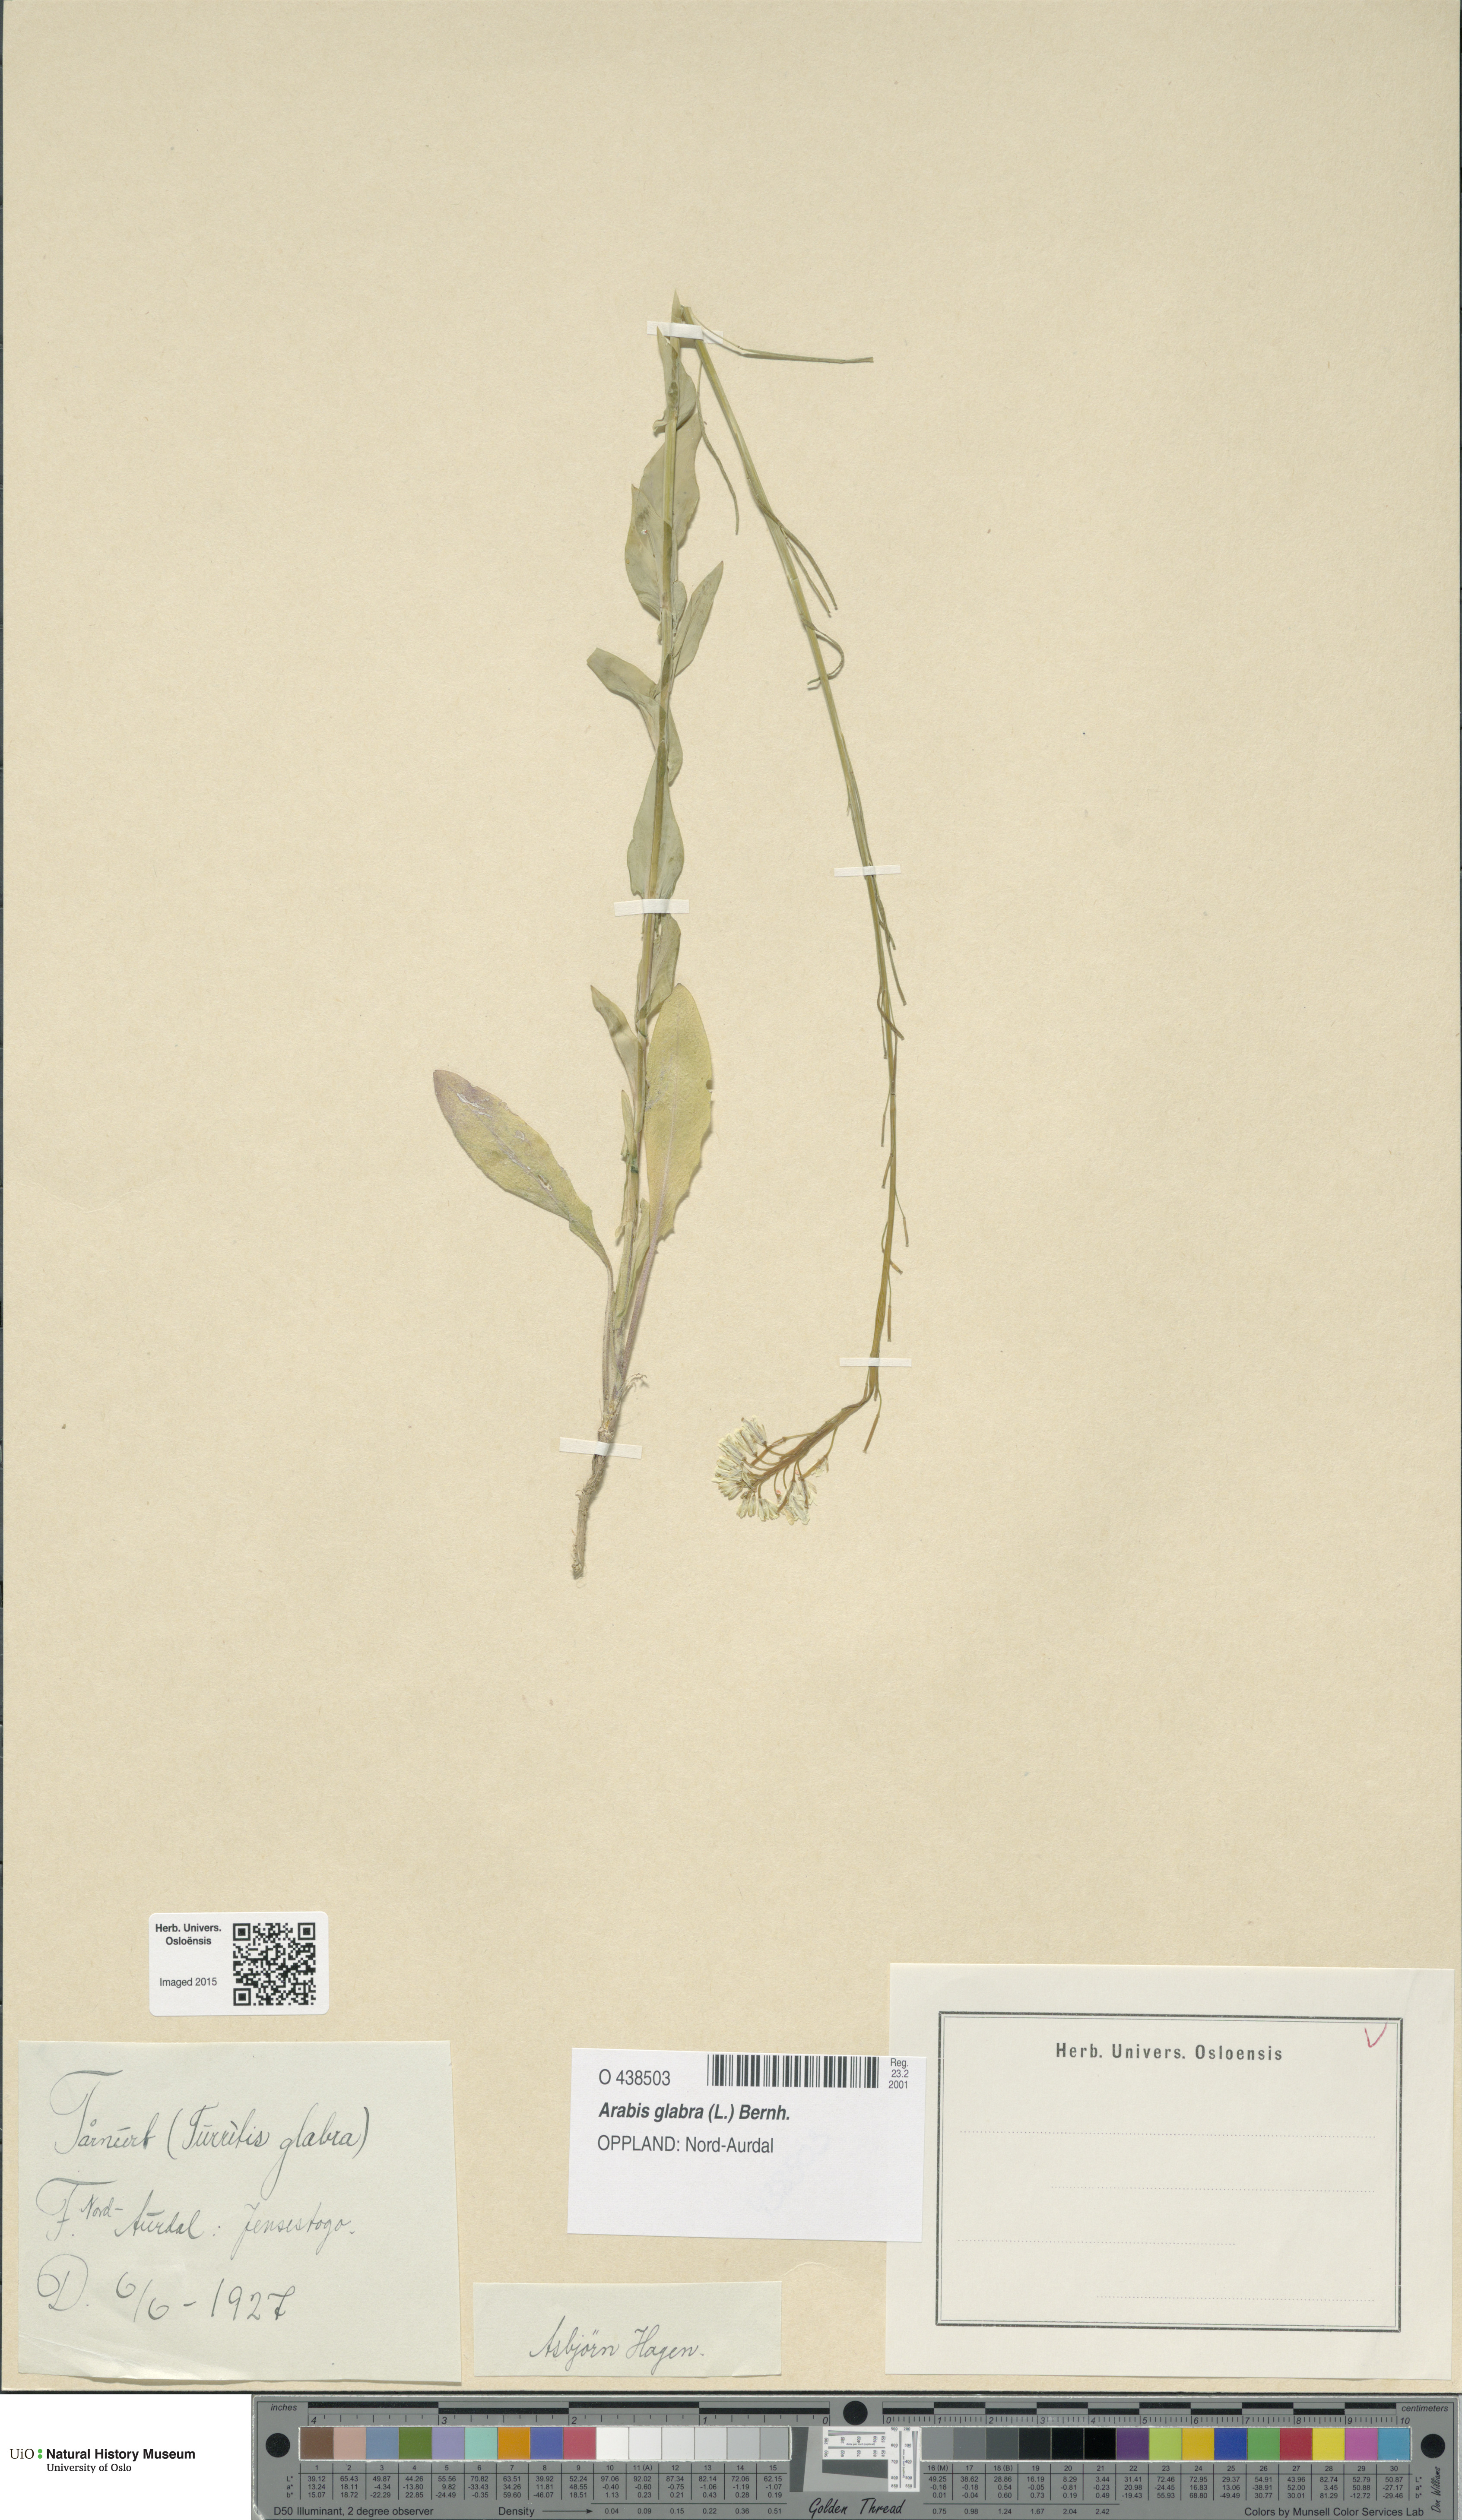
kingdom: Plantae
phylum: Tracheophyta
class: Magnoliopsida
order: Brassicales
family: Brassicaceae
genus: Turritis
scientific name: Turritis glabra
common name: Tower rockcress
